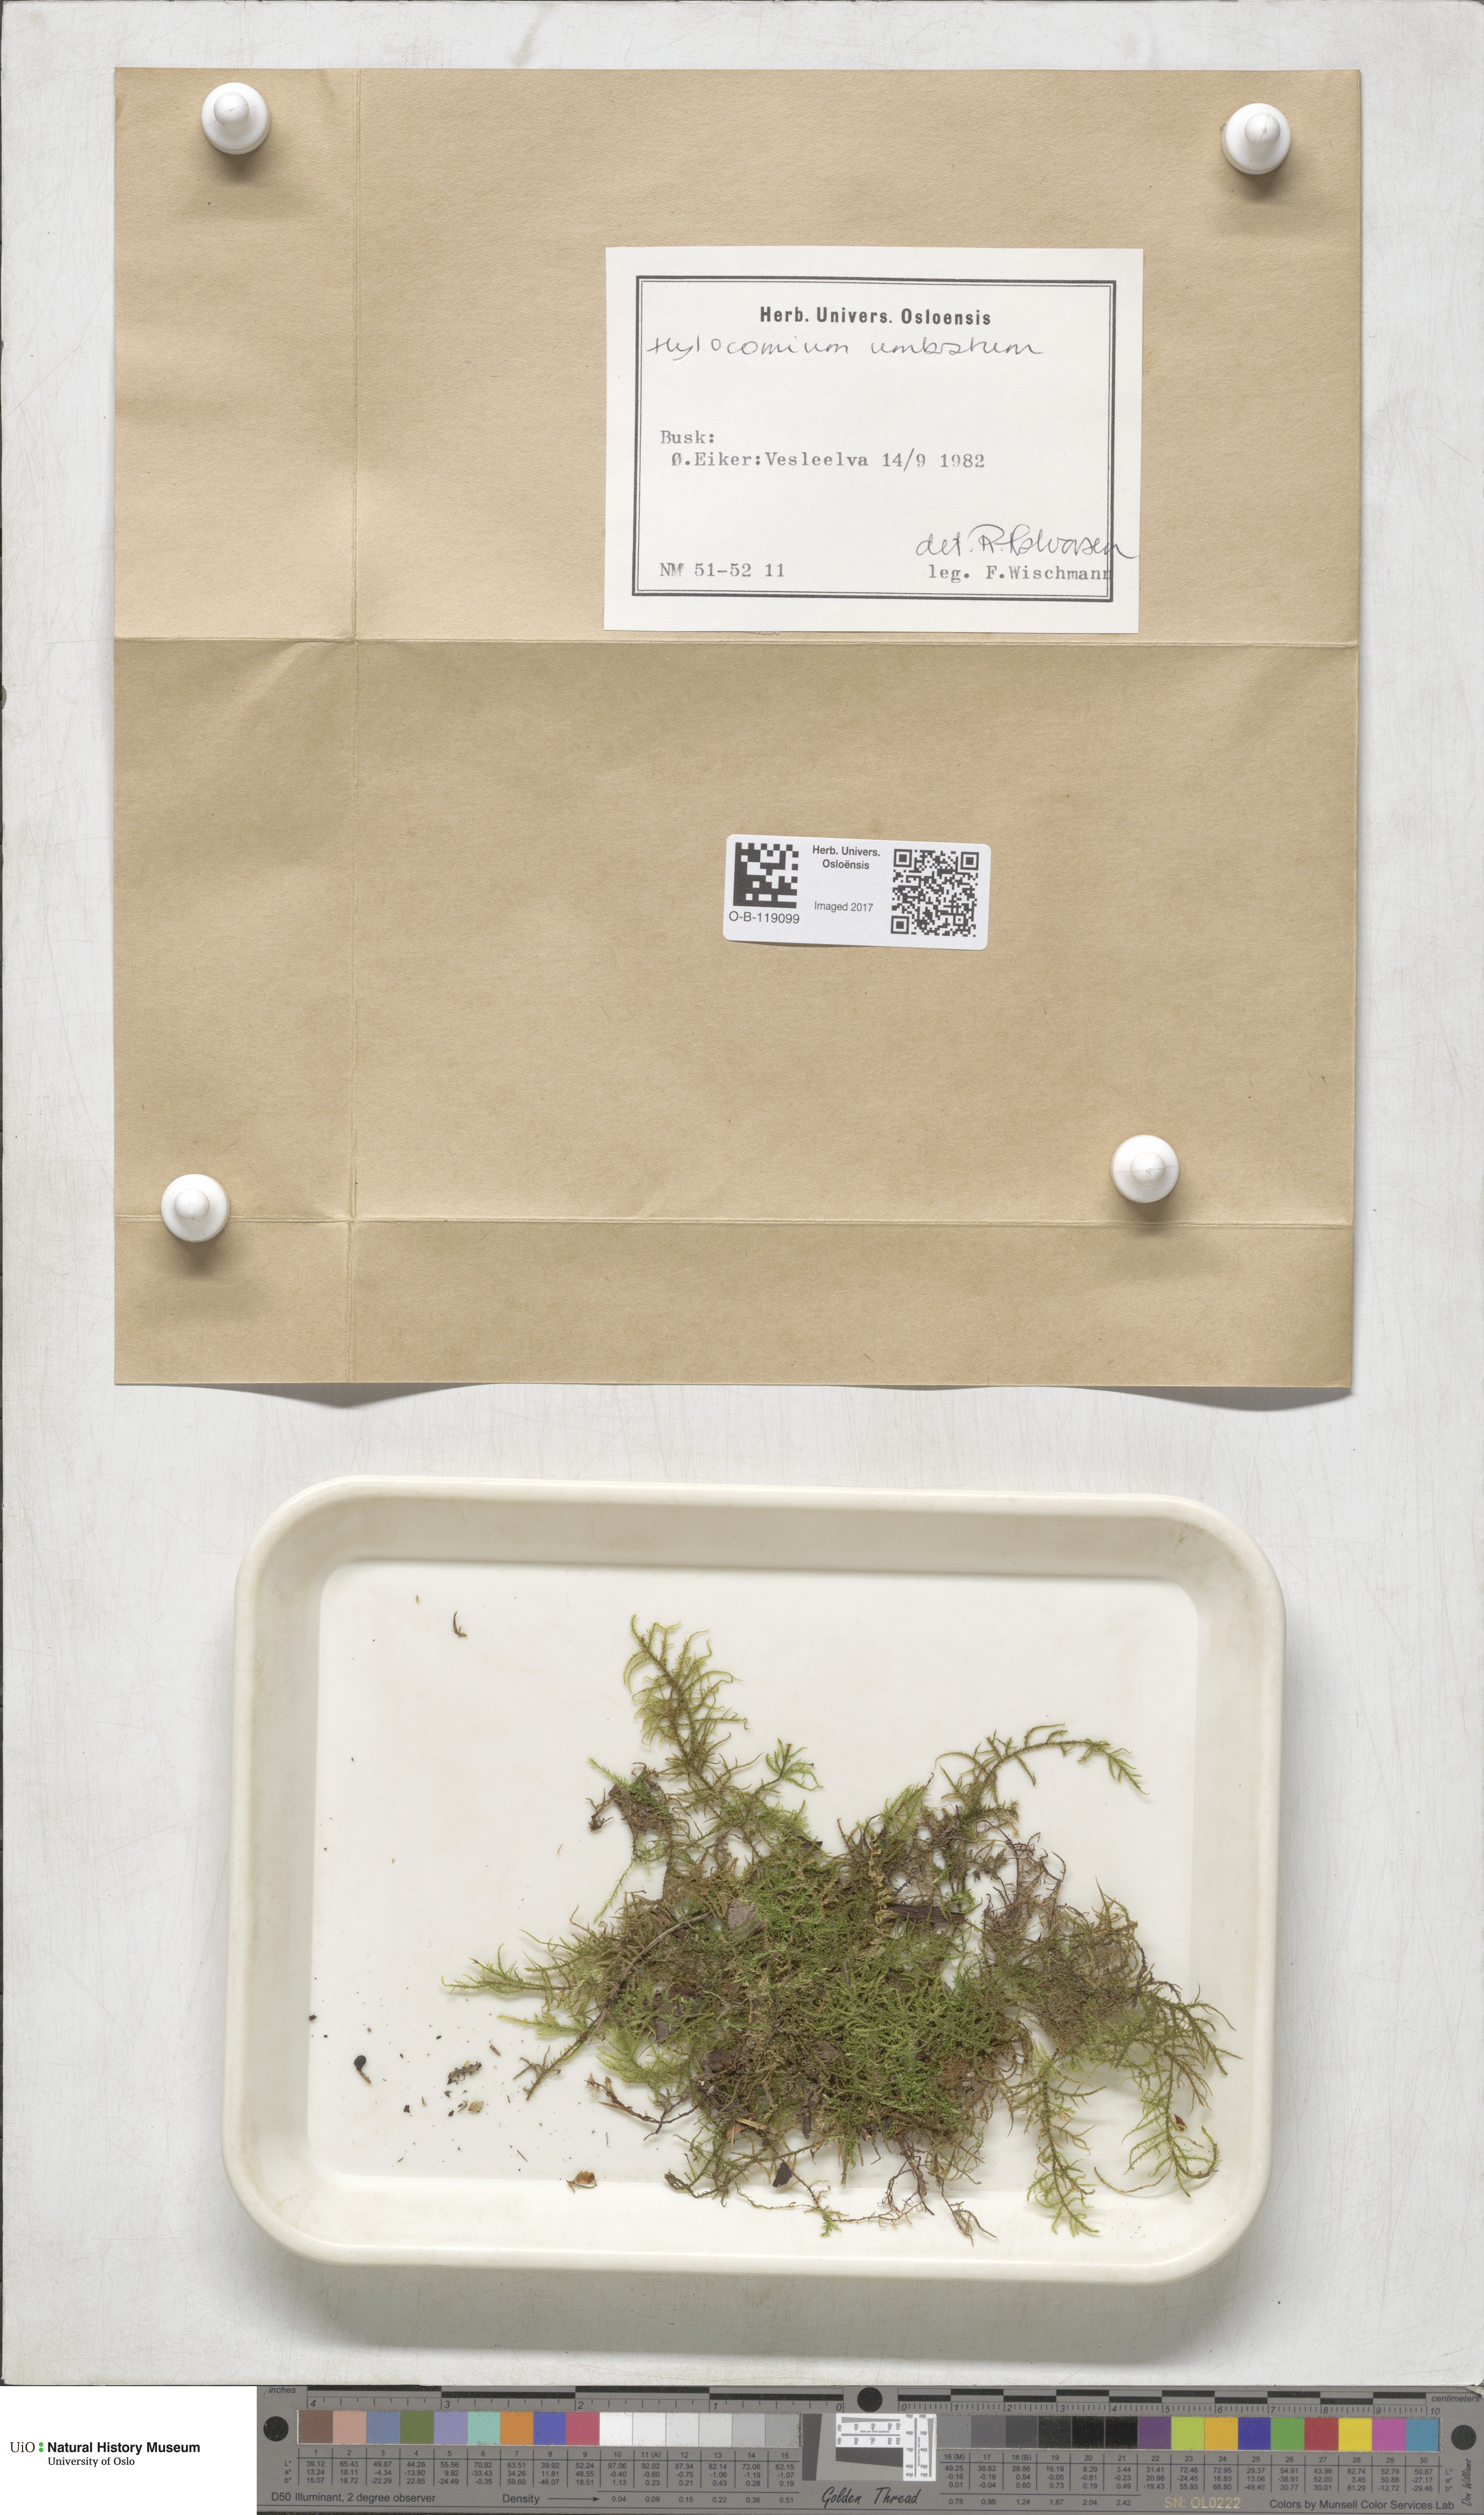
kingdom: Plantae
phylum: Bryophyta
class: Bryopsida
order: Hypnales
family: Hylocomiaceae
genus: Hylocomiastrum
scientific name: Hylocomiastrum umbratum
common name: Shaded woods moss
